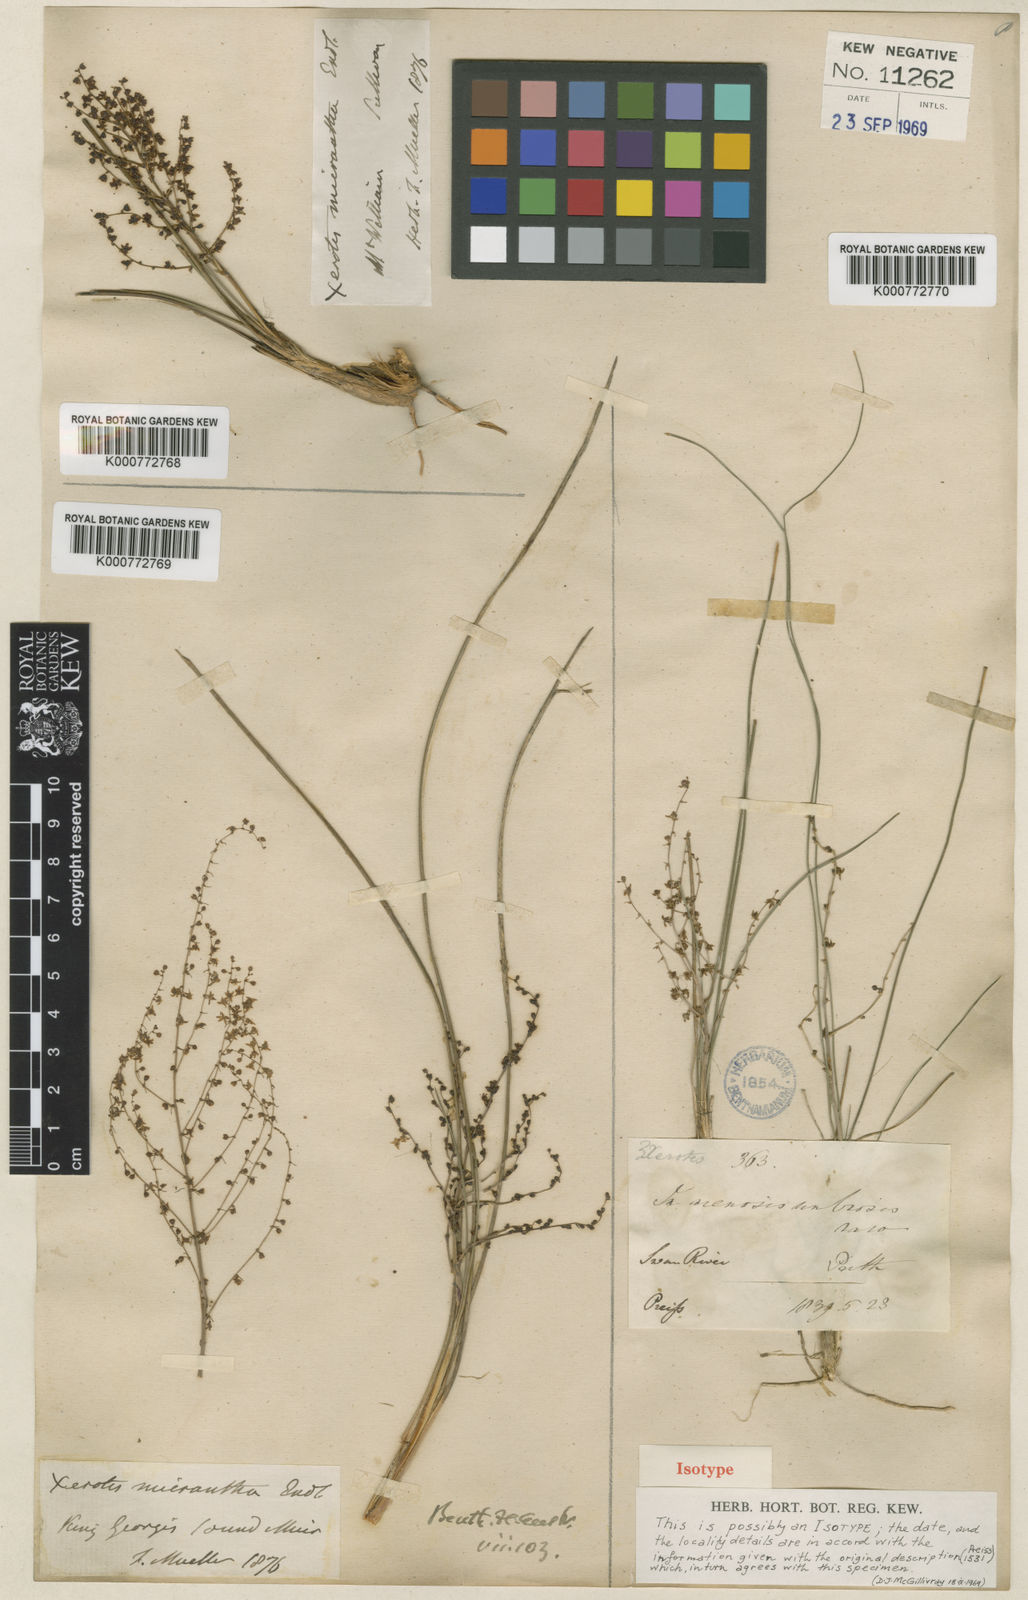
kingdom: Plantae
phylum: Tracheophyta
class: Liliopsida
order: Asparagales
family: Asparagaceae
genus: Lomandra
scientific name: Lomandra micrantha
